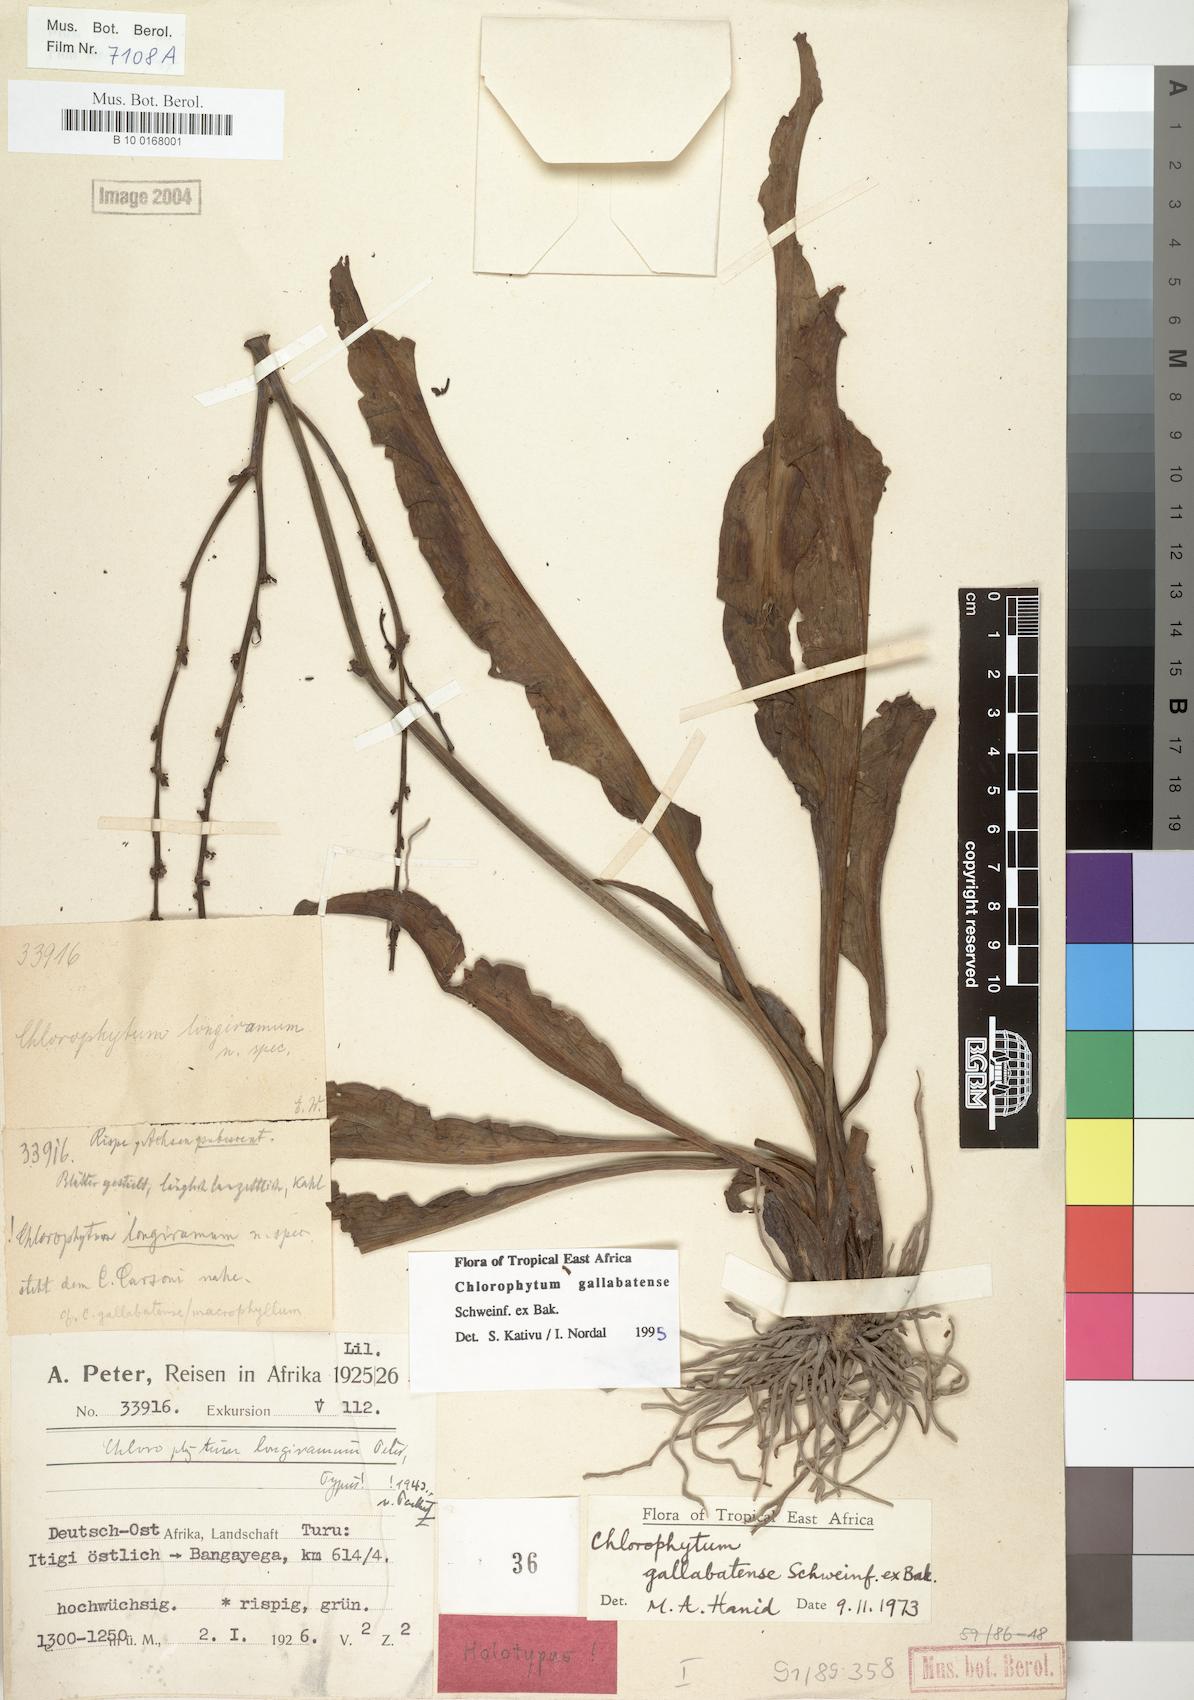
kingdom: Plantae
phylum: Tracheophyta
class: Liliopsida
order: Asparagales
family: Asparagaceae
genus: Chlorophytum
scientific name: Chlorophytum gallabatense
